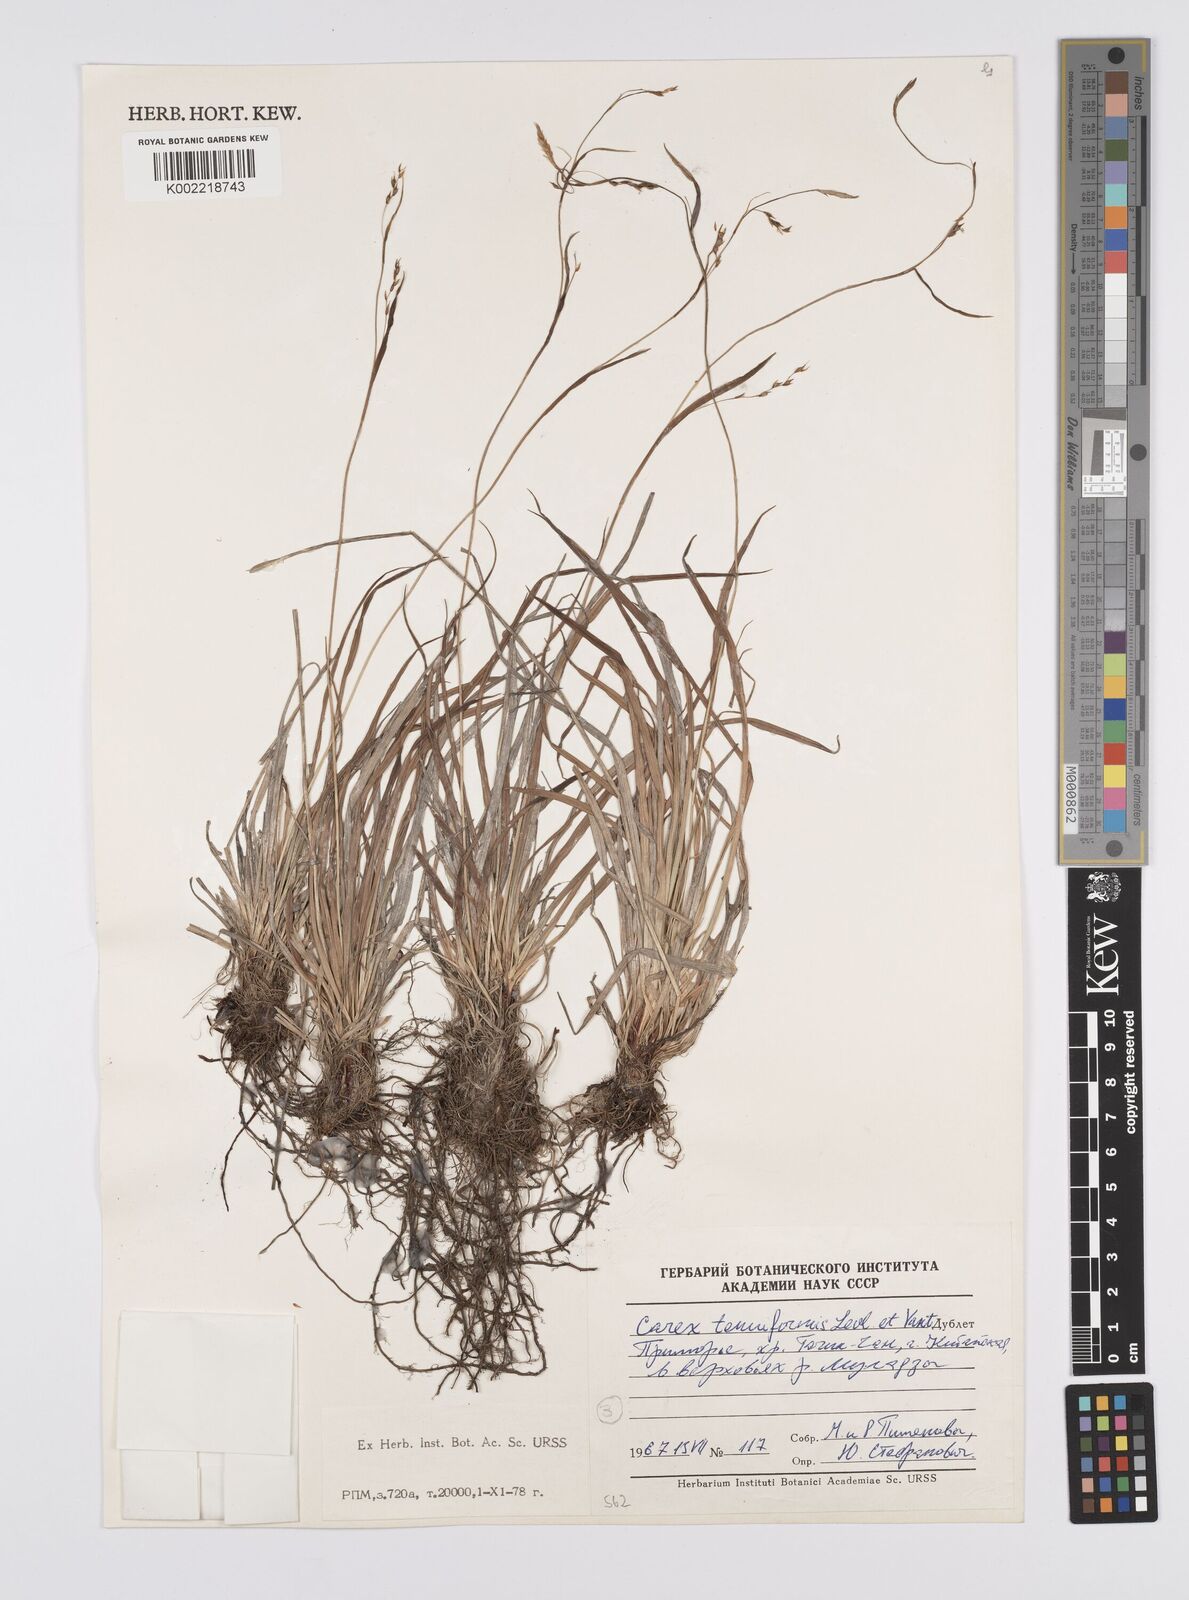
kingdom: Plantae
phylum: Tracheophyta
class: Liliopsida
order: Poales
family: Cyperaceae
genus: Carex
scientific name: Carex tenuiformis
